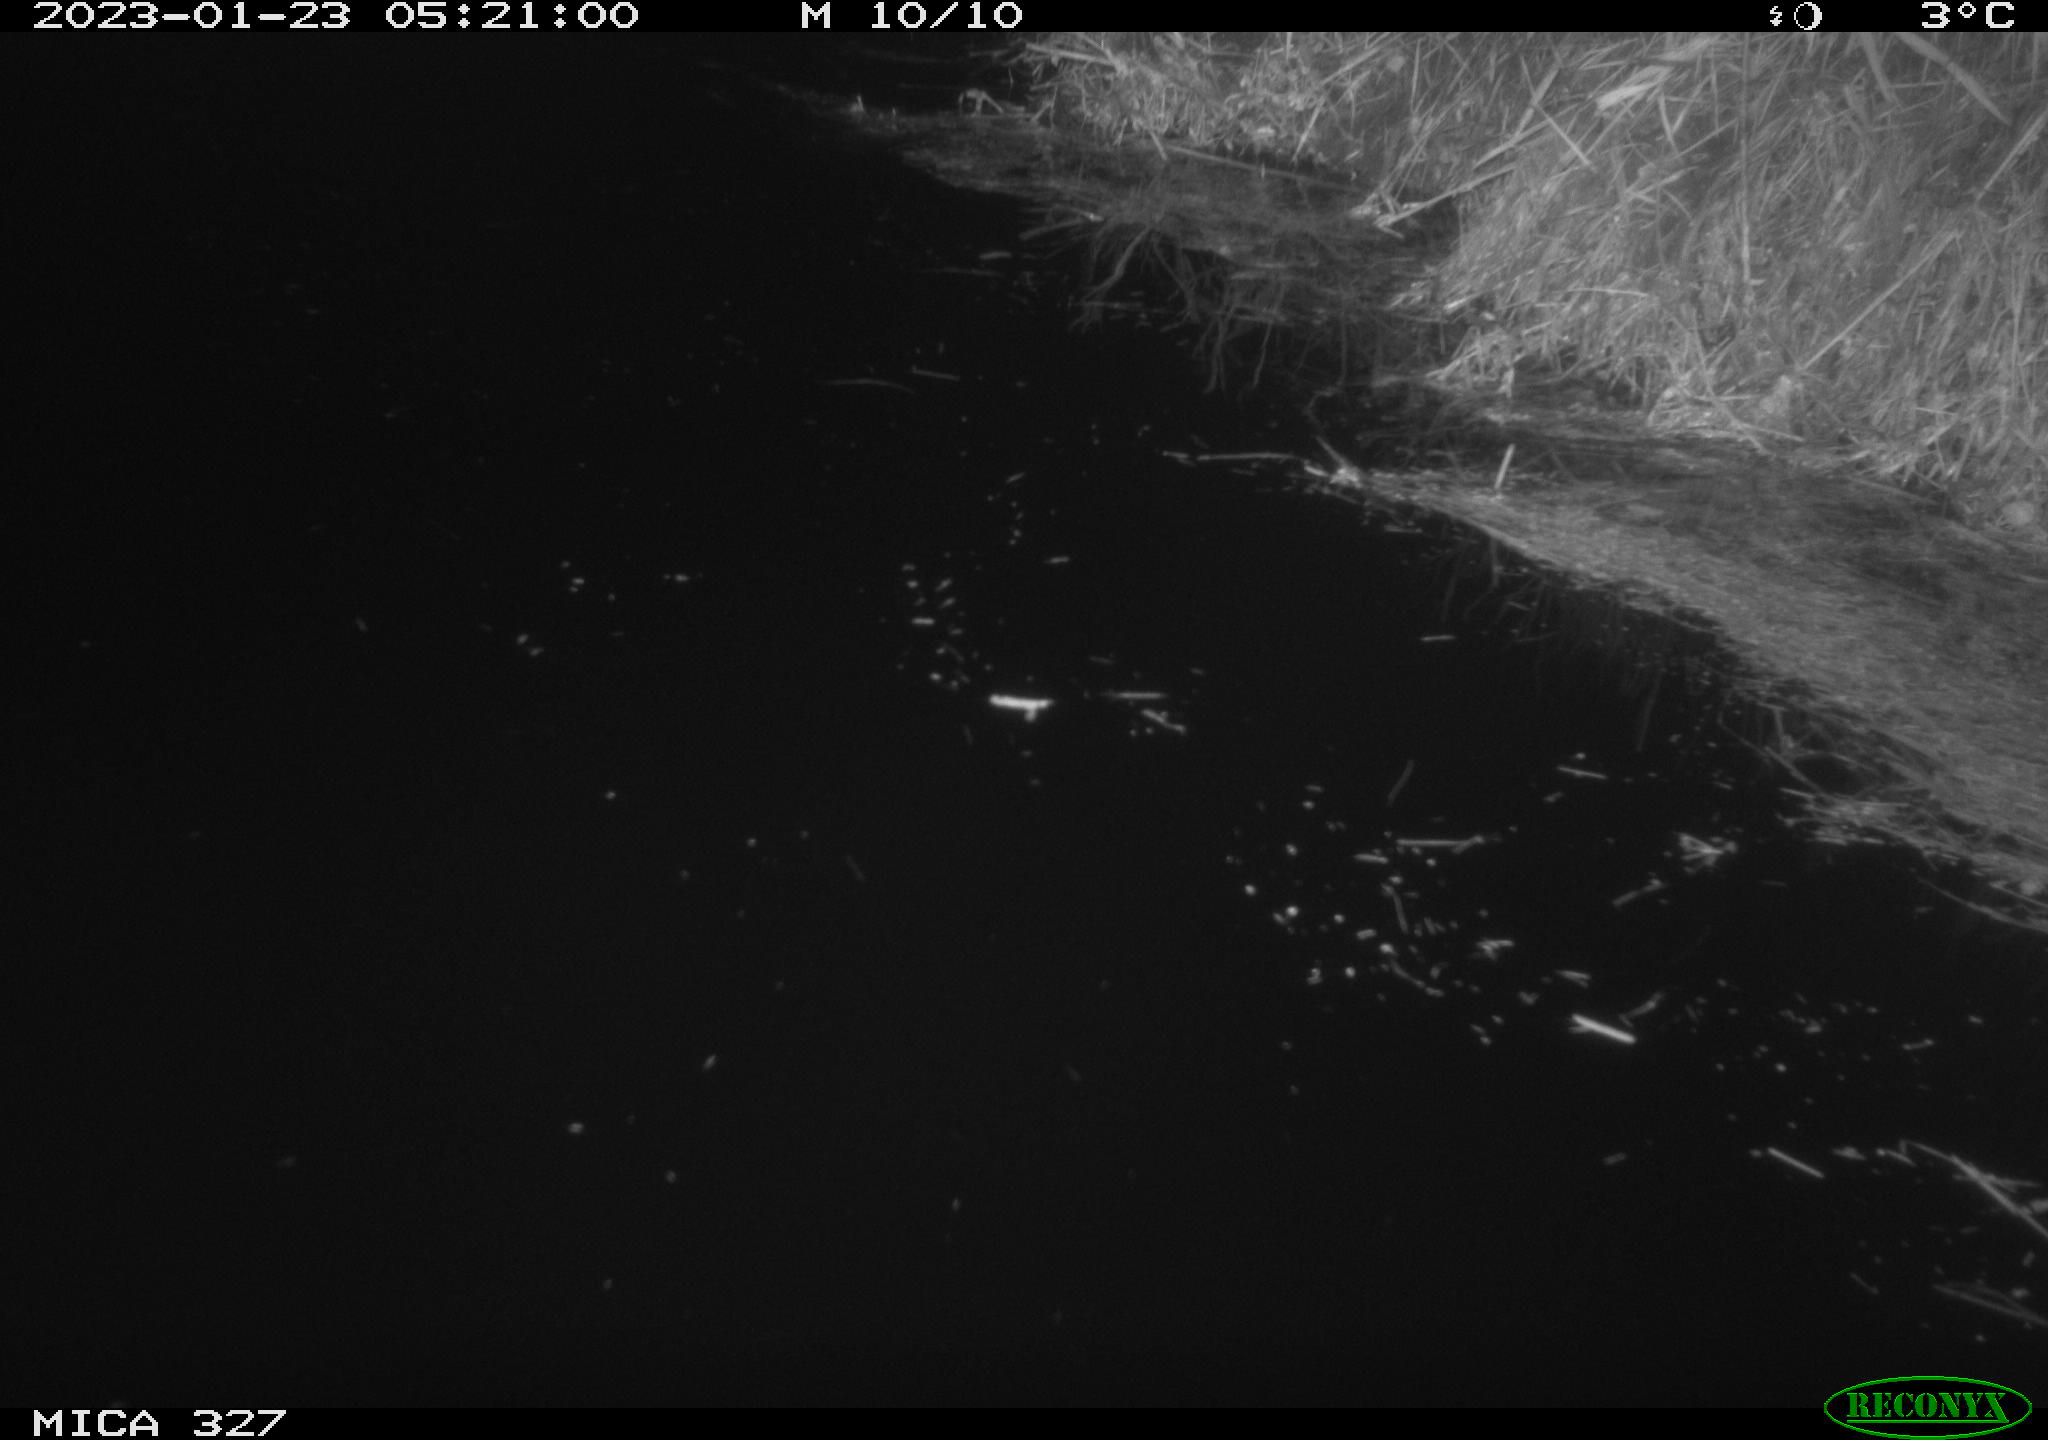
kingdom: Animalia
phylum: Chordata
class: Mammalia
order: Rodentia
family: Cricetidae
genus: Ondatra
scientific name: Ondatra zibethicus
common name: Muskrat
